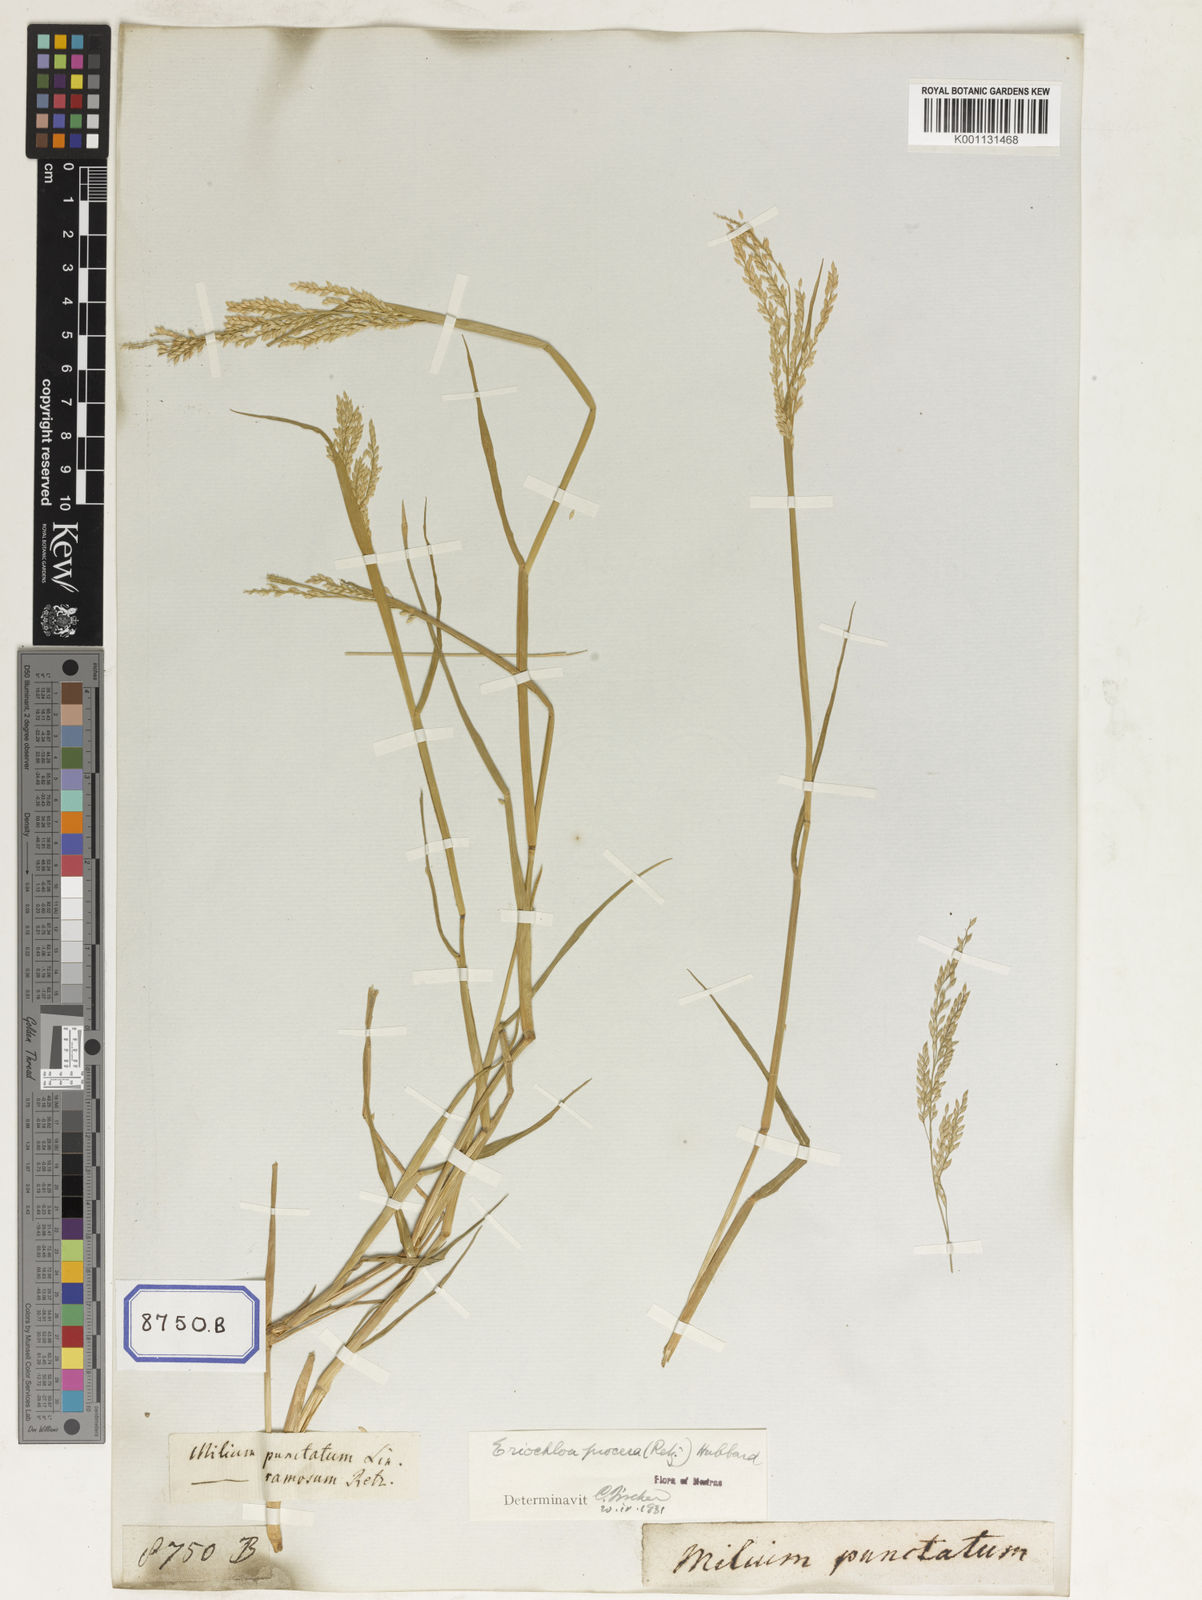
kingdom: Plantae
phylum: Tracheophyta
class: Liliopsida
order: Poales
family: Poaceae
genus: Eriochloa
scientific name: Eriochloa procera
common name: Spring grass
